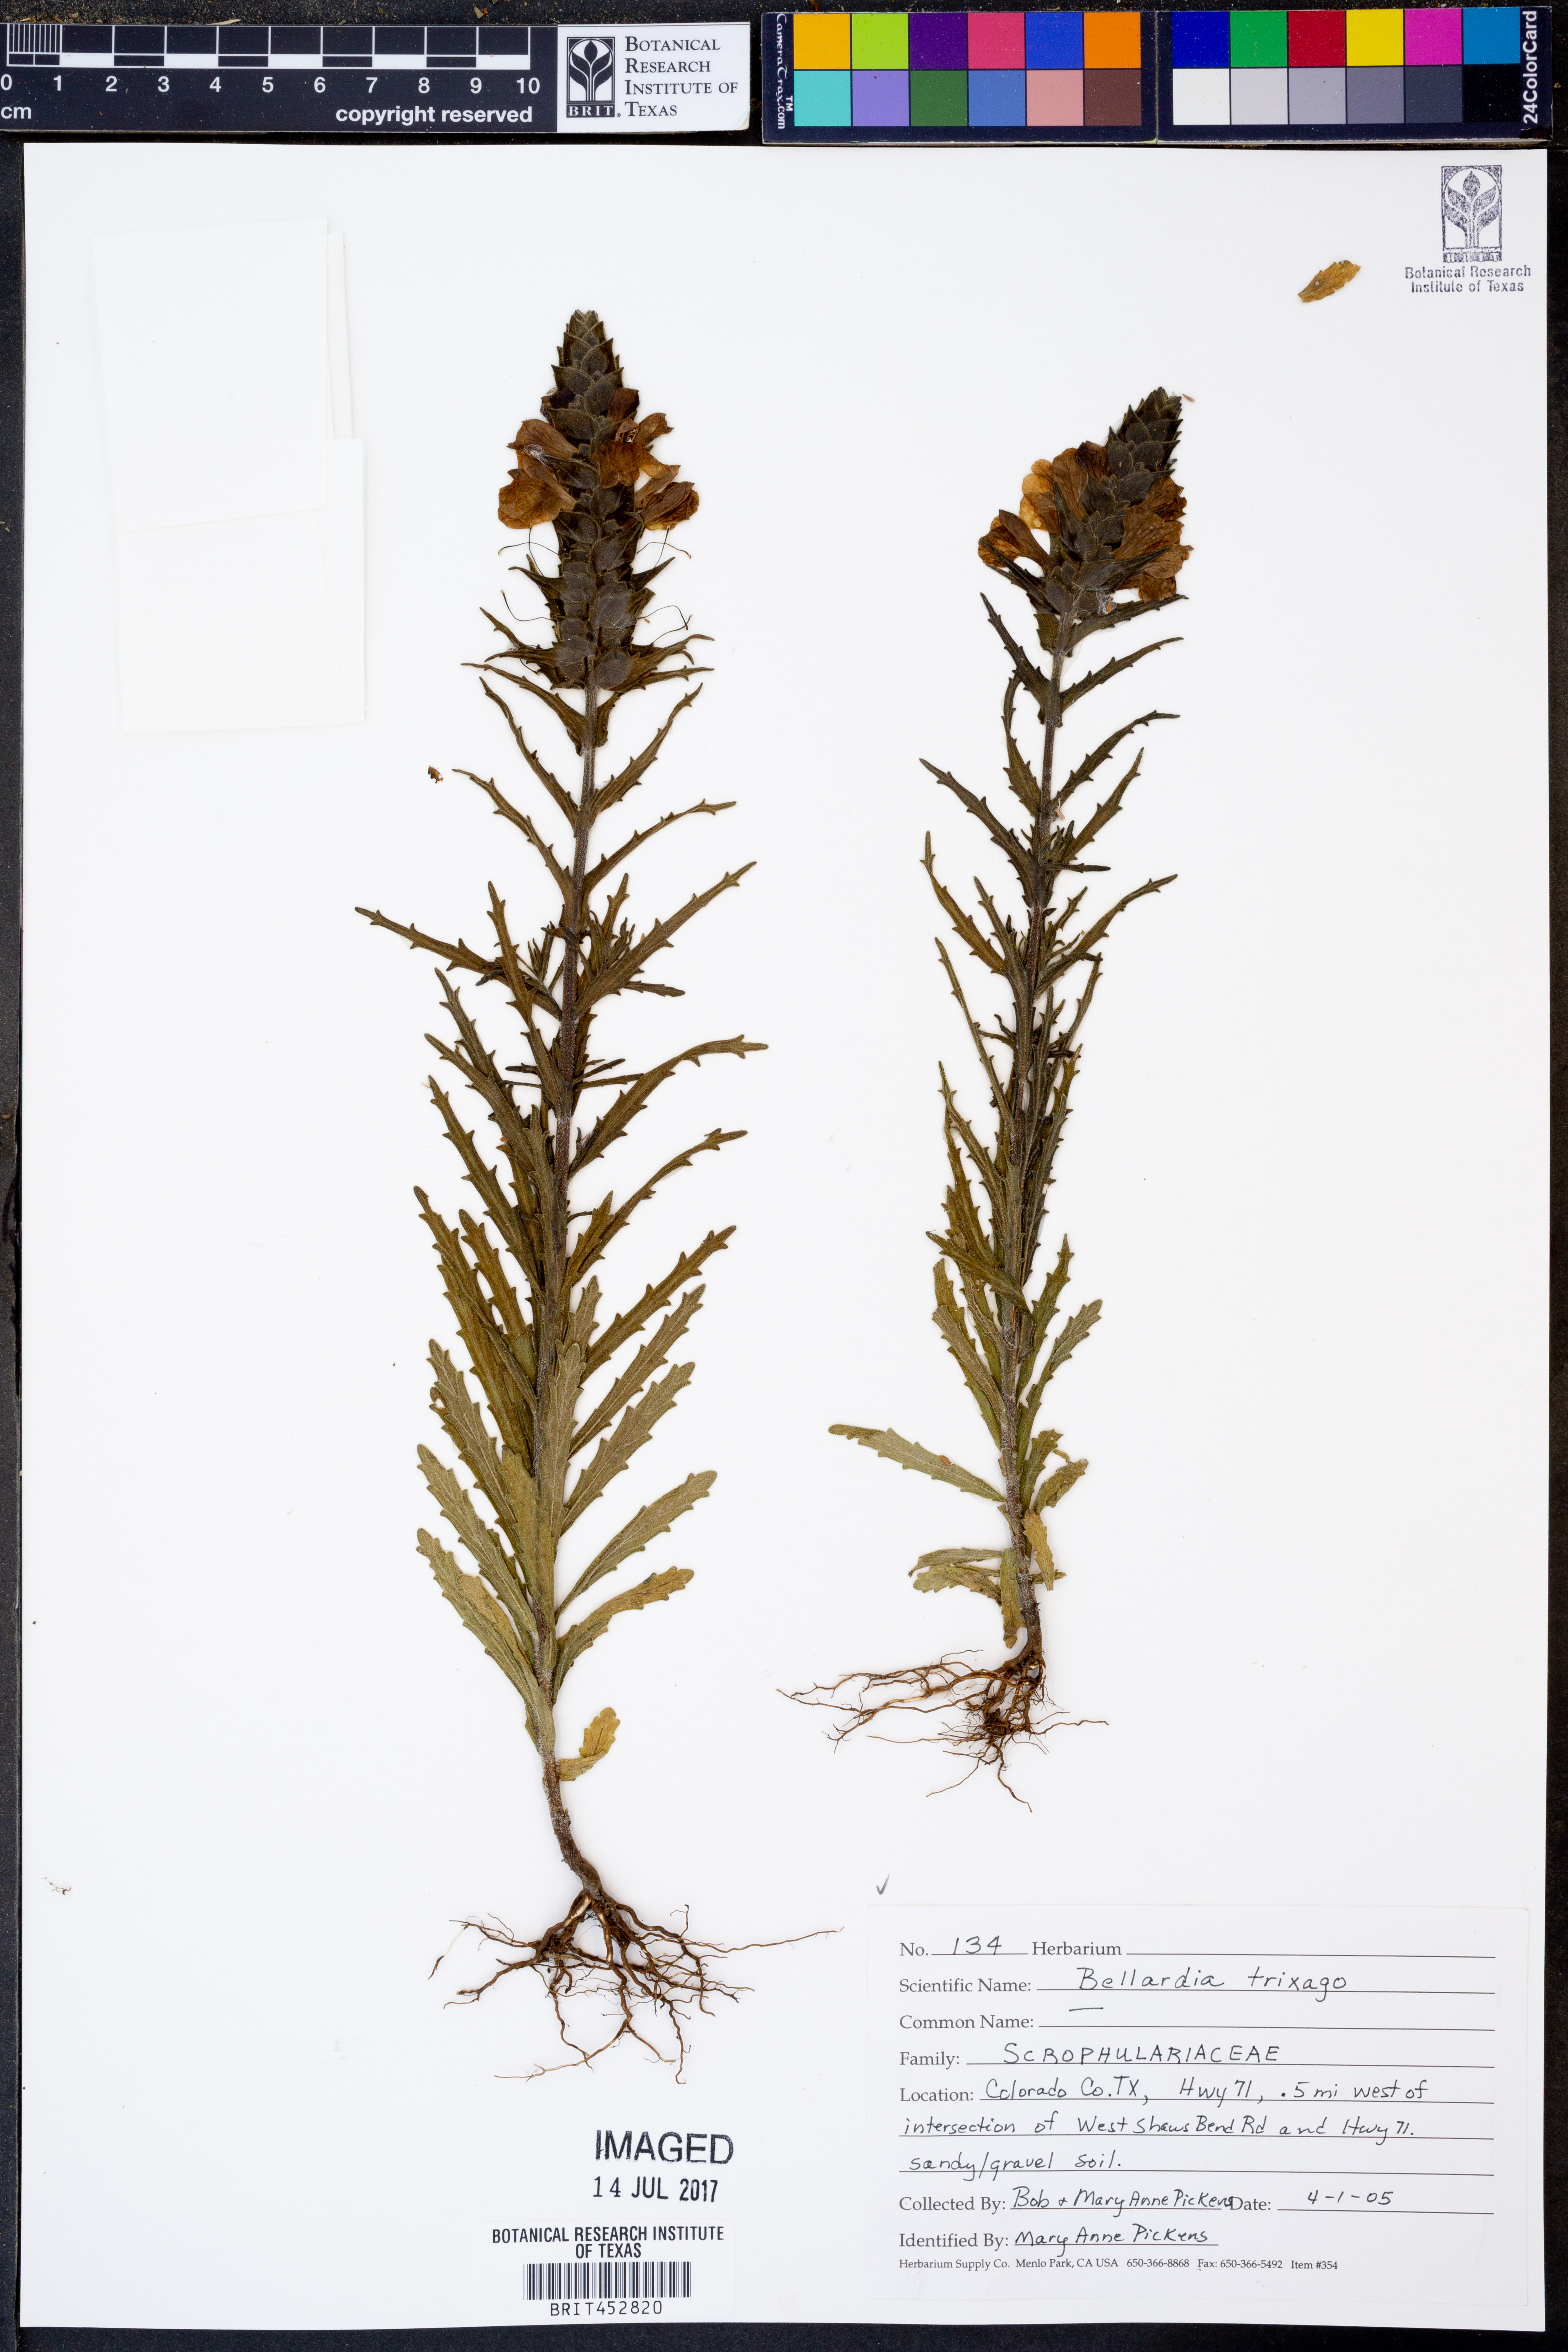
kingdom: Plantae
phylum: Tracheophyta
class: Magnoliopsida
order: Lamiales
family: Orobanchaceae
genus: Bellardia
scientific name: Bellardia trixago
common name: Mediterranean lineseed
